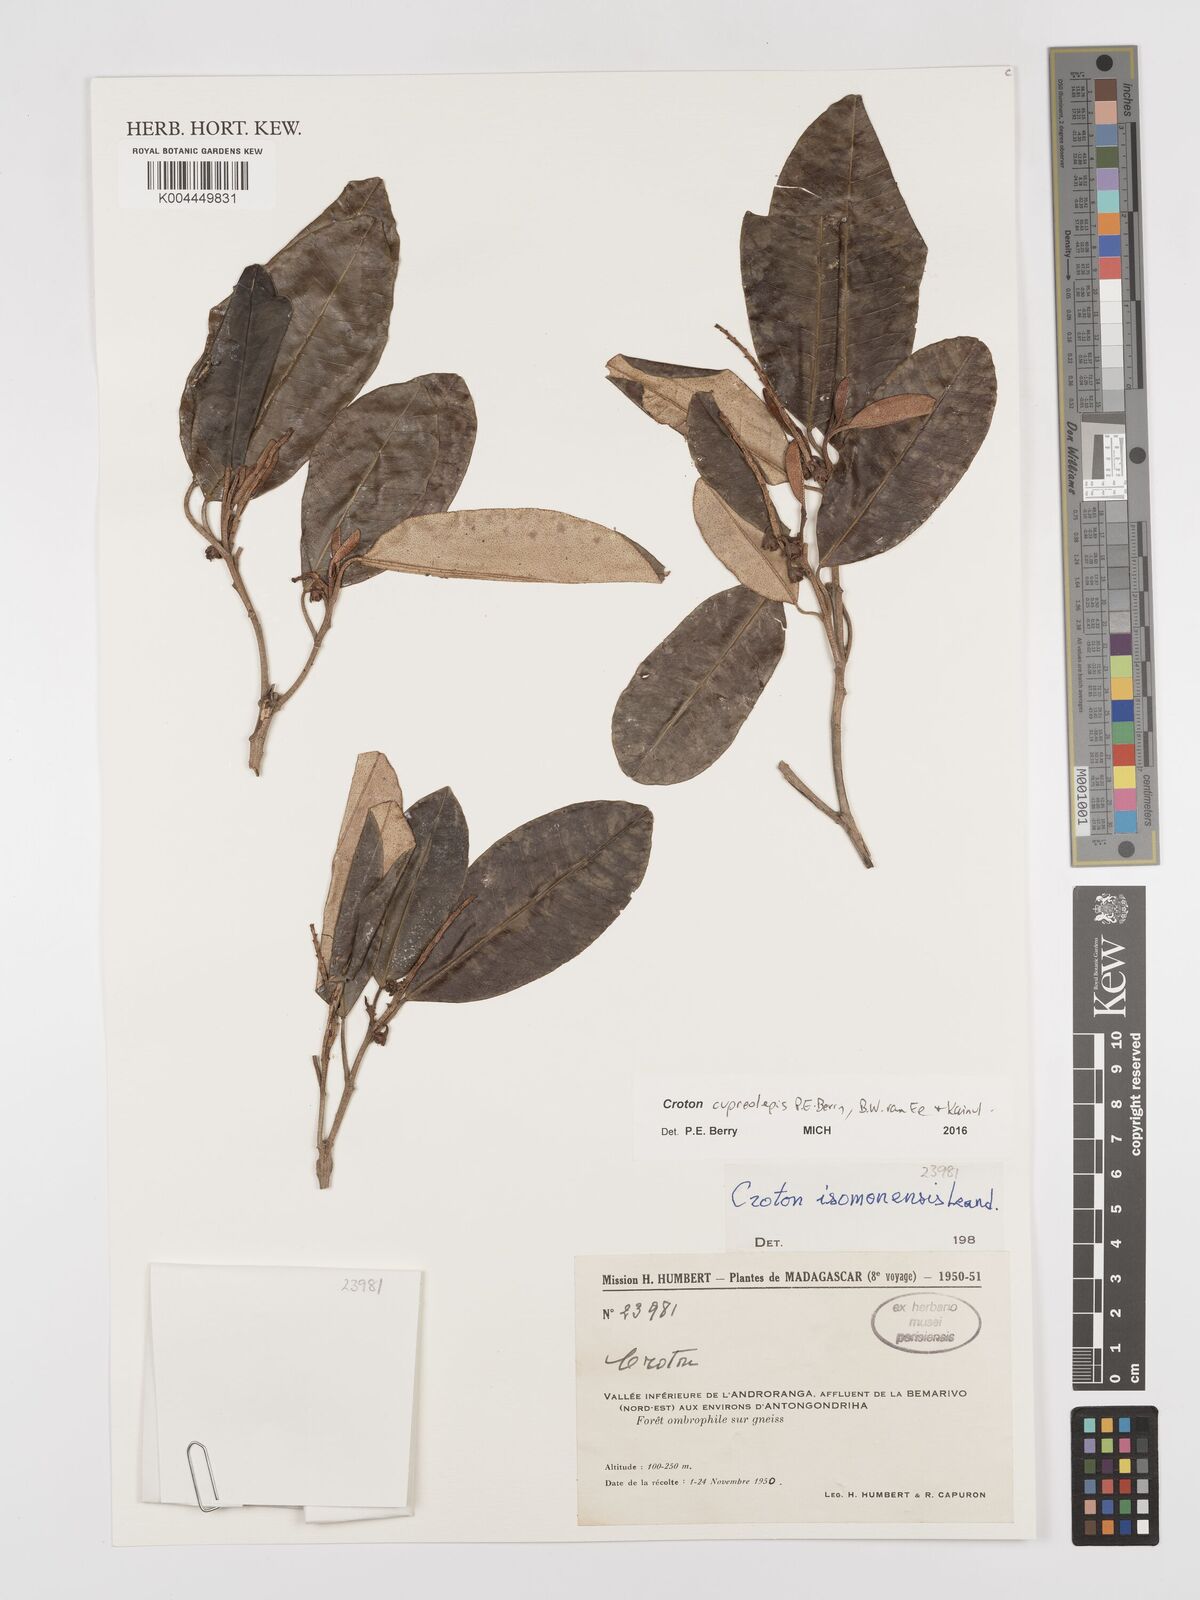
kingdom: Plantae
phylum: Tracheophyta
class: Magnoliopsida
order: Malpighiales
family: Euphorbiaceae
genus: Croton
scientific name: Croton cupreolepis
